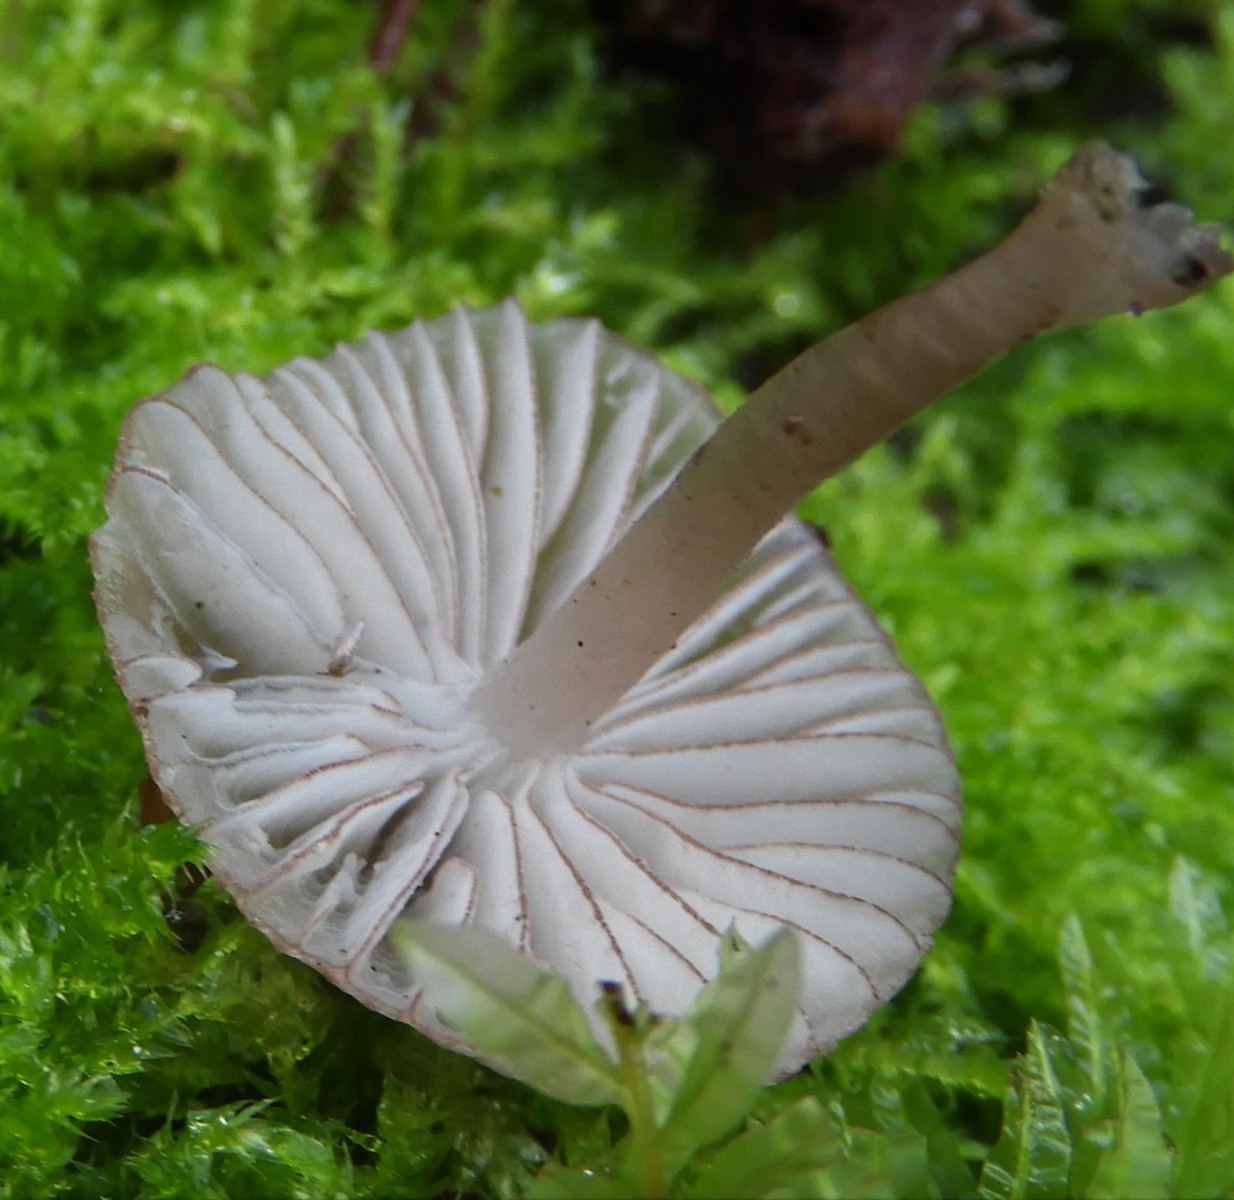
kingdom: Fungi
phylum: Basidiomycota
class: Agaricomycetes
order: Agaricales
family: Mycenaceae
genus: Mycena
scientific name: Mycena rubromarginata
